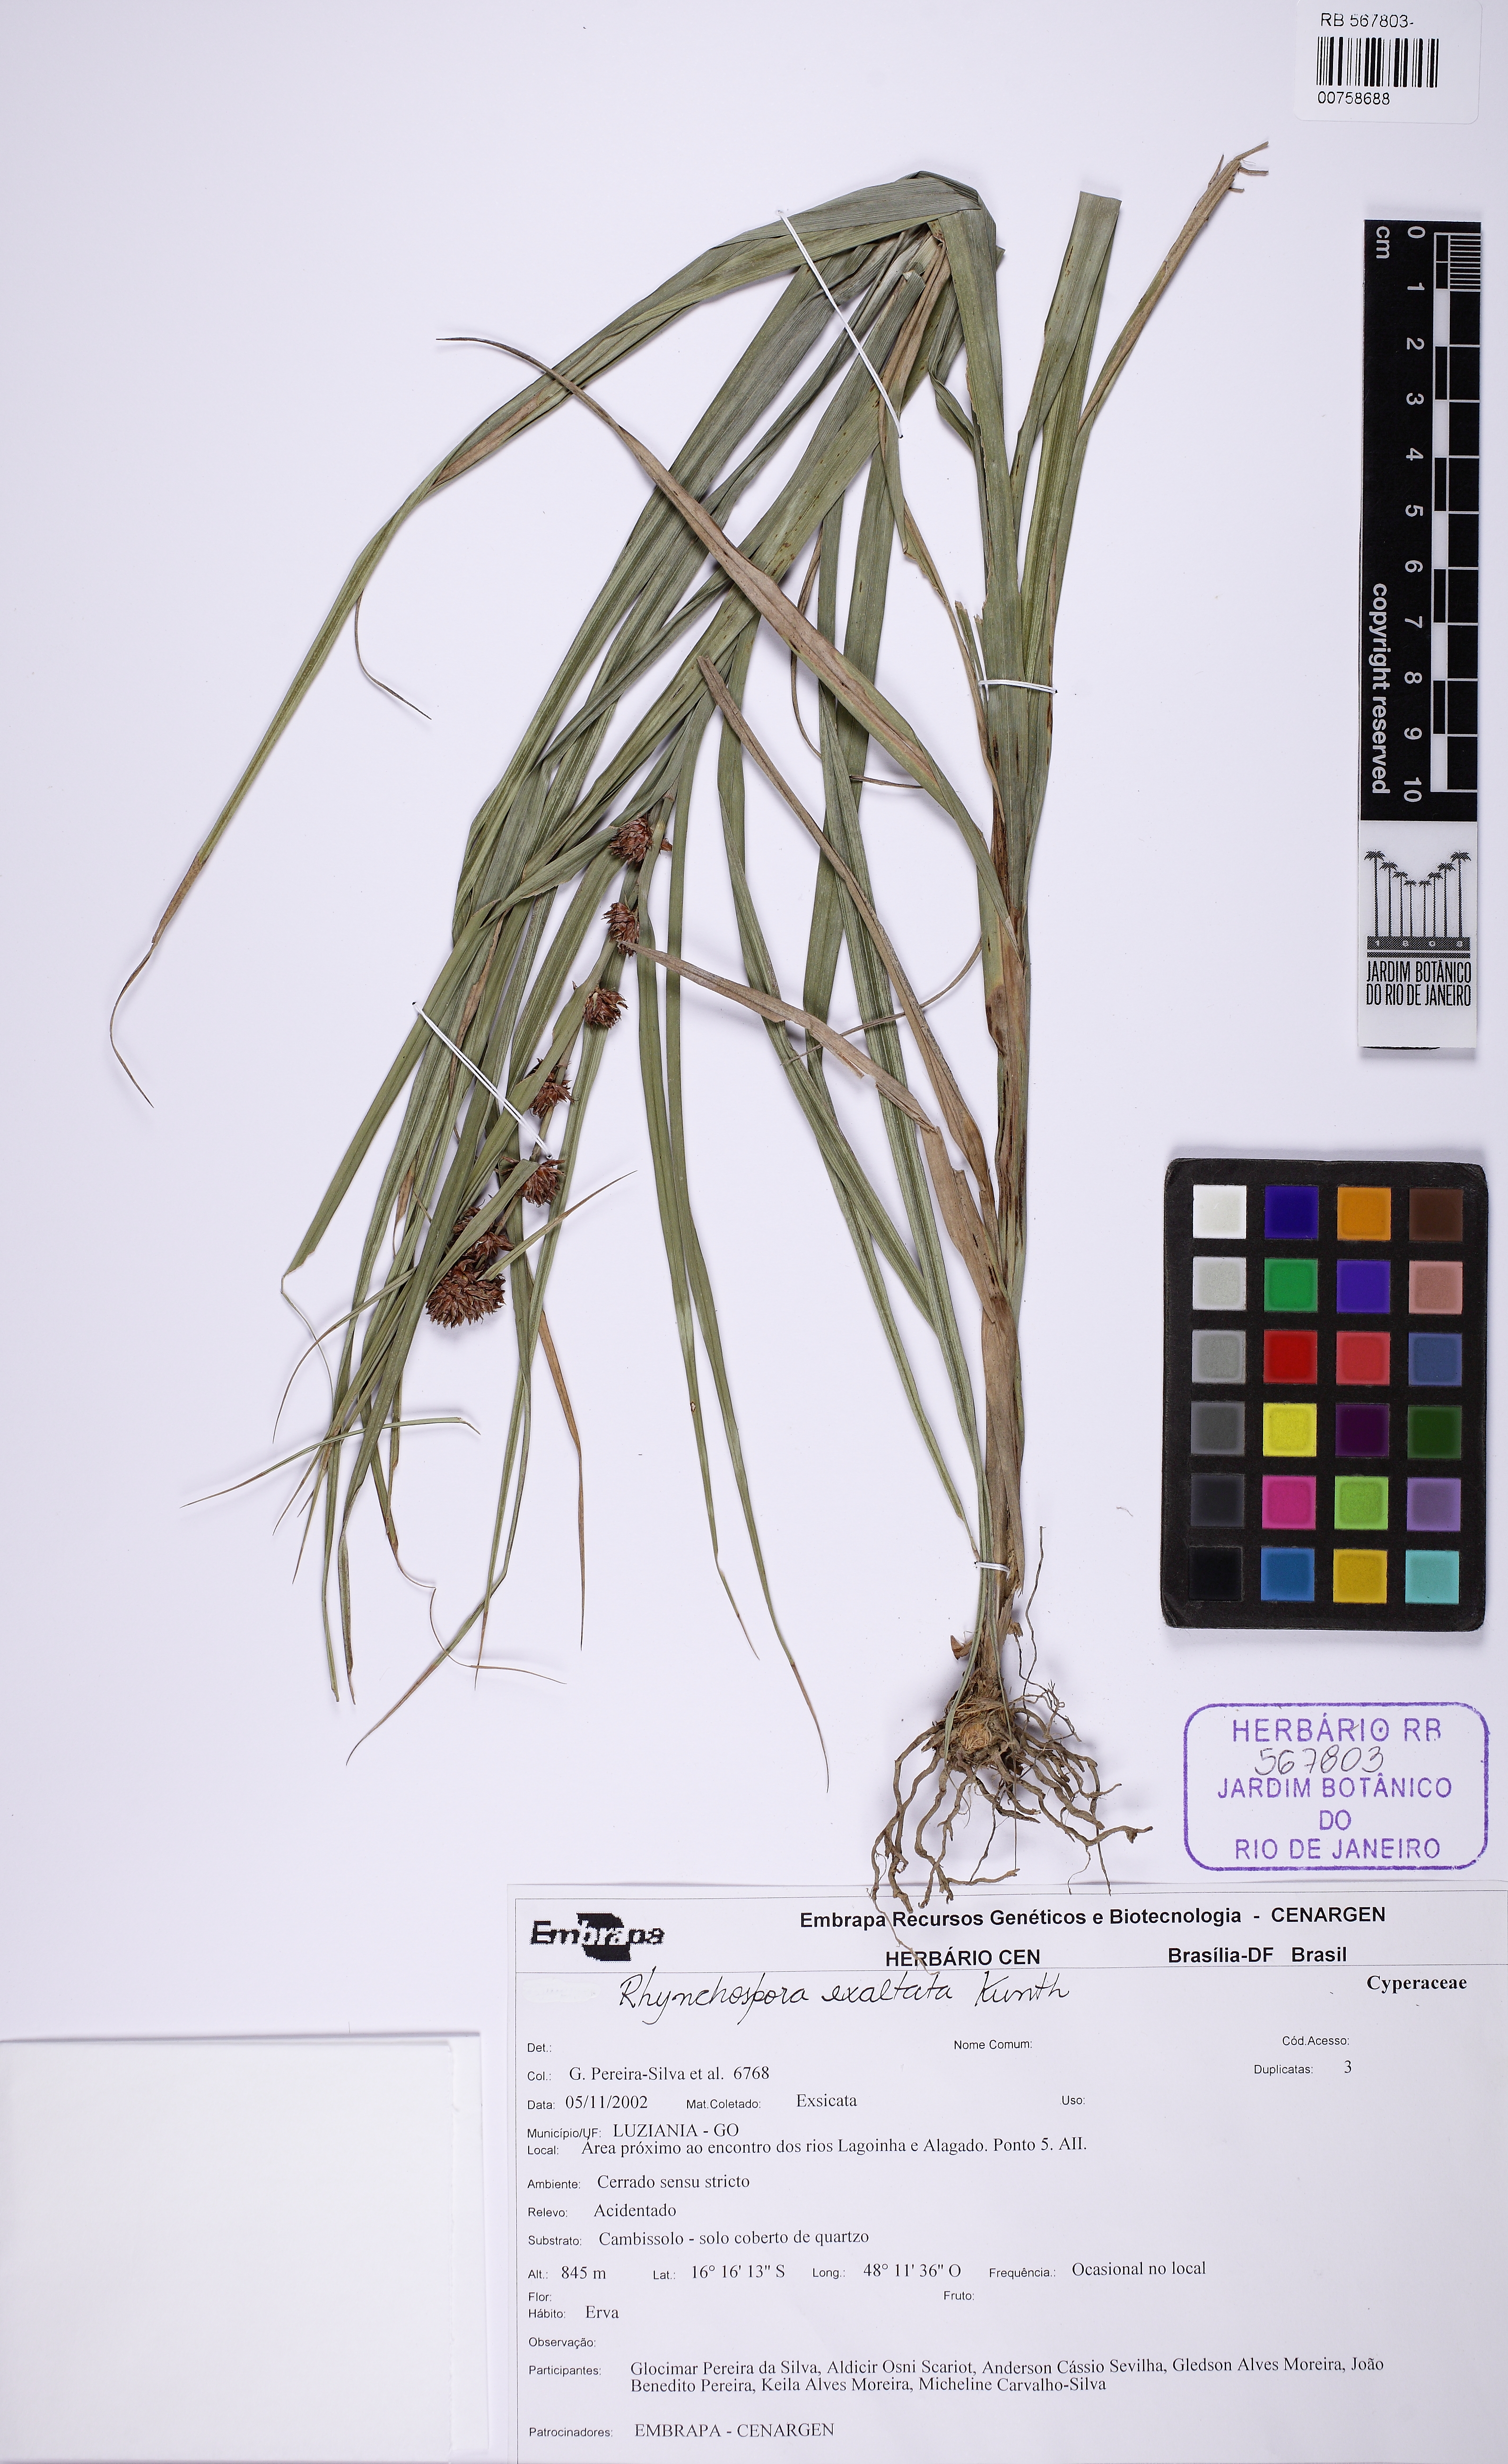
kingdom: Plantae
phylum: Tracheophyta
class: Liliopsida
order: Poales
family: Cyperaceae
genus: Rhynchospora
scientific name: Rhynchospora exaltata
